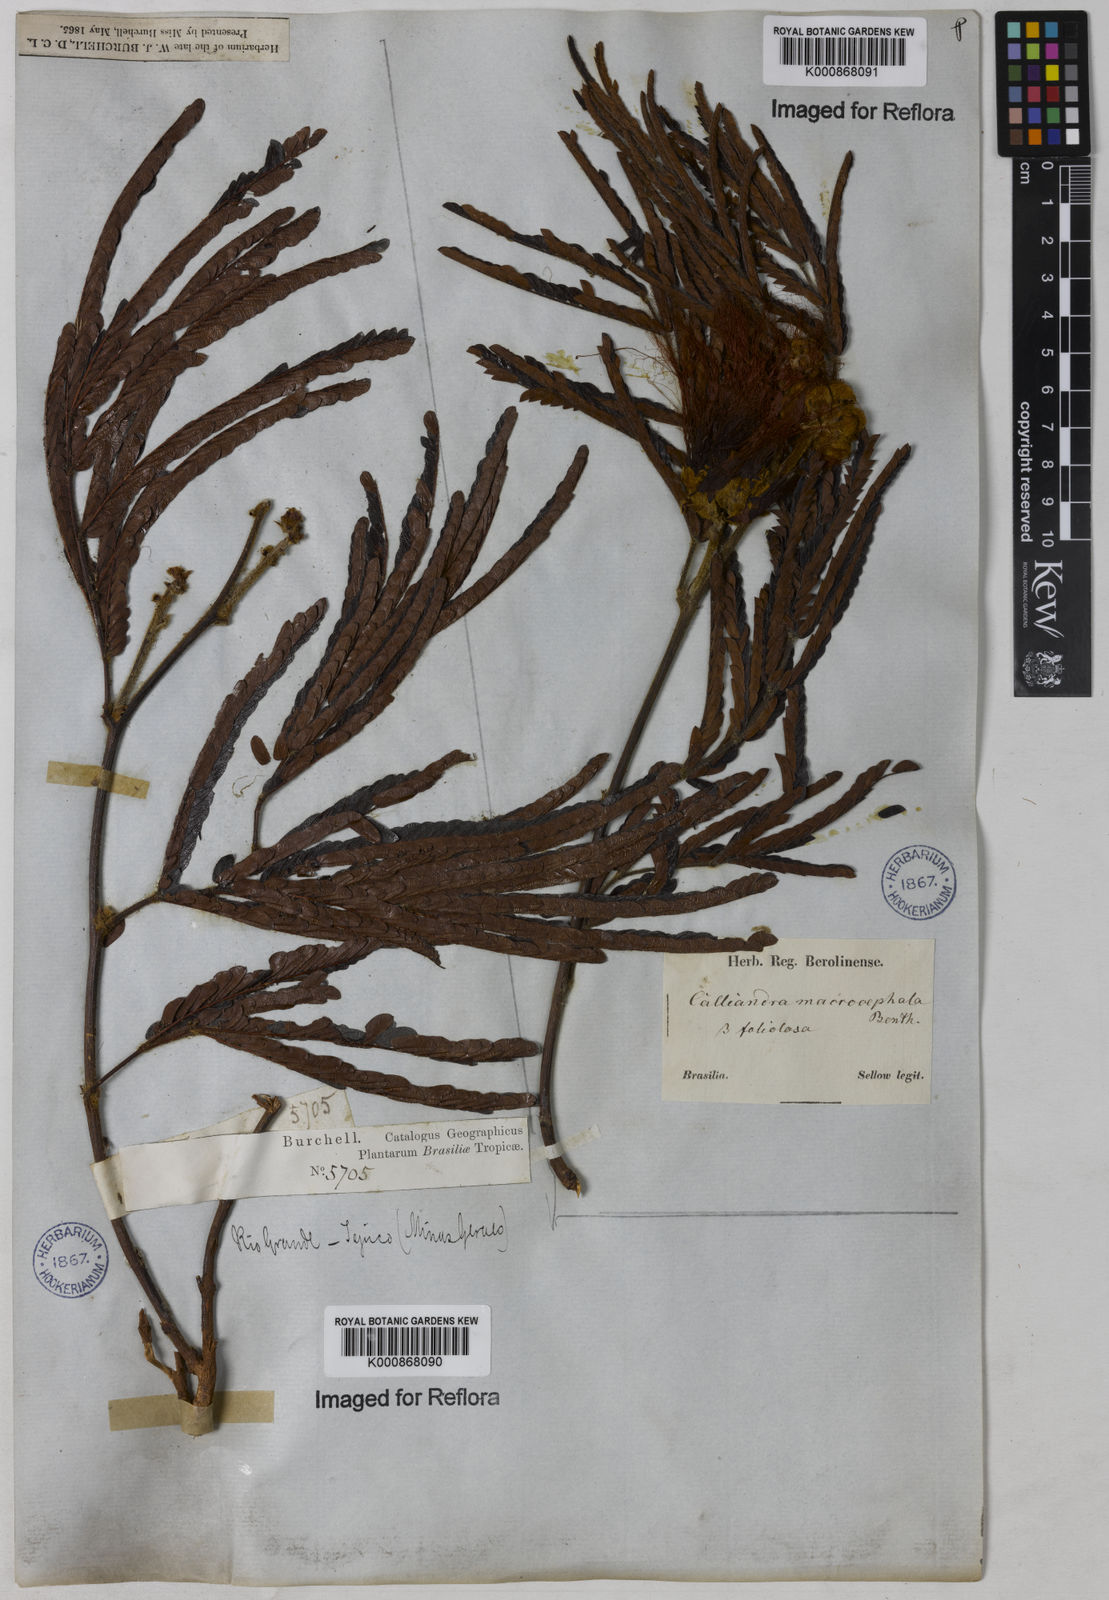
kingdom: Plantae
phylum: Tracheophyta
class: Magnoliopsida
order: Fabales
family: Fabaceae
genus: Calliandra
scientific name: Calliandra dysantha
